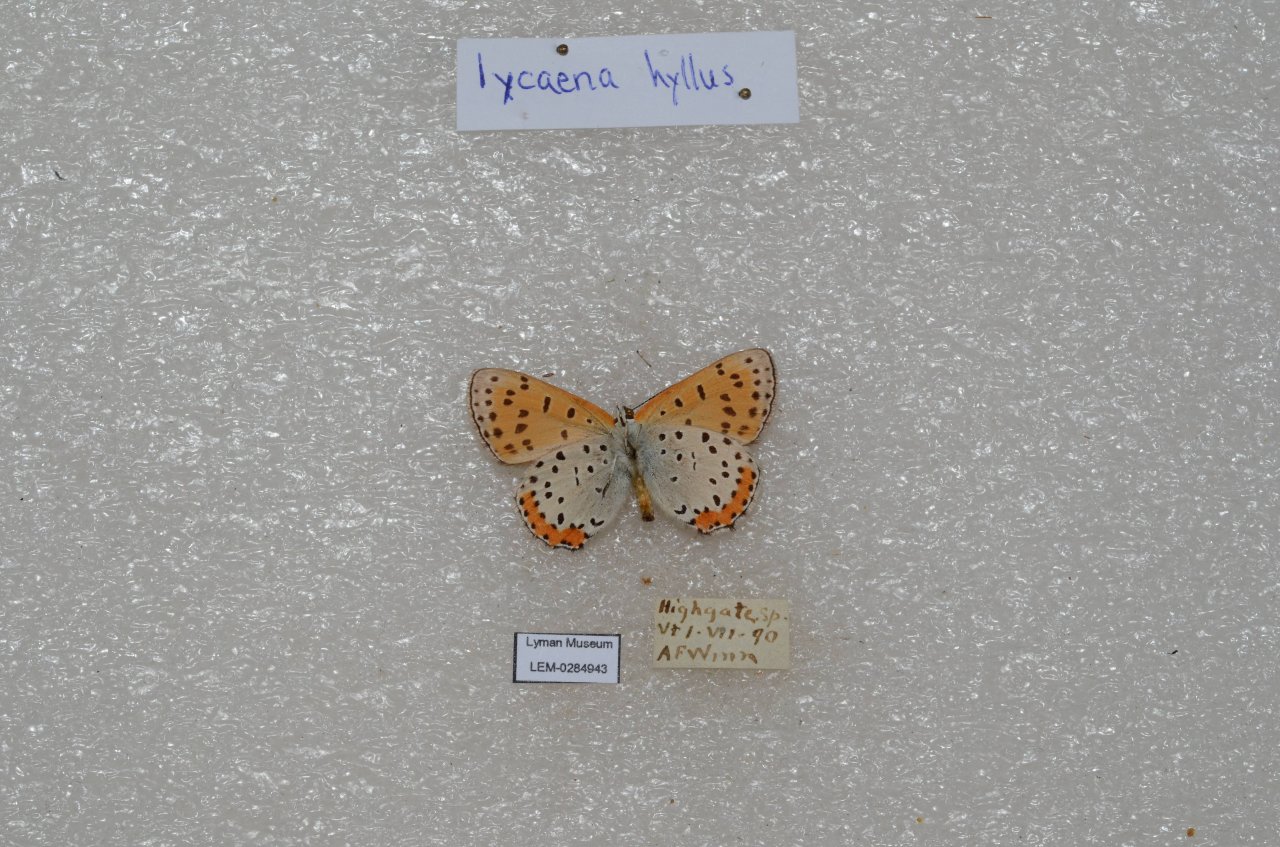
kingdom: Animalia
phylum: Arthropoda
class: Insecta
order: Lepidoptera
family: Sesiidae
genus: Sesia
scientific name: Sesia Lycaena hyllus
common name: Bronze Copper
